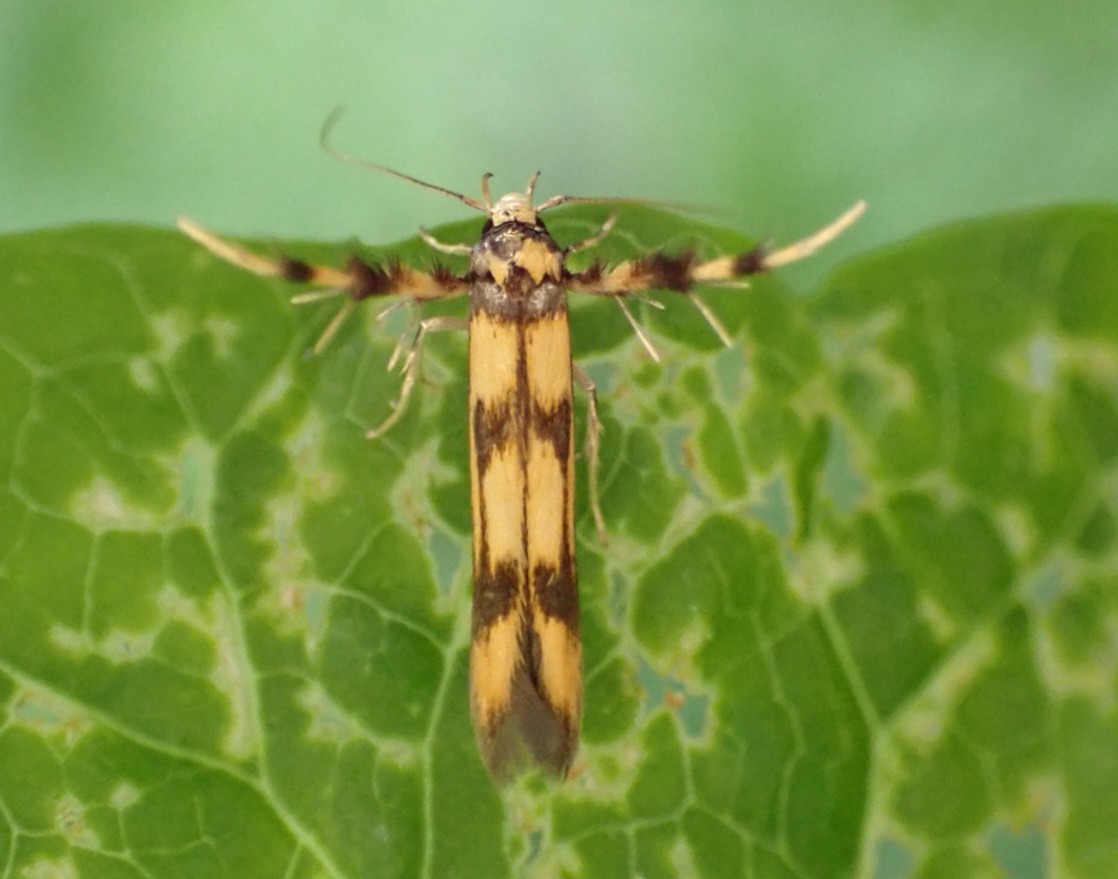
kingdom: Animalia
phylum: Arthropoda
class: Insecta
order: Lepidoptera
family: Stathmopodidae
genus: Stathmopoda
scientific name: Stathmopoda pedella
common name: Strittende ellemøl
